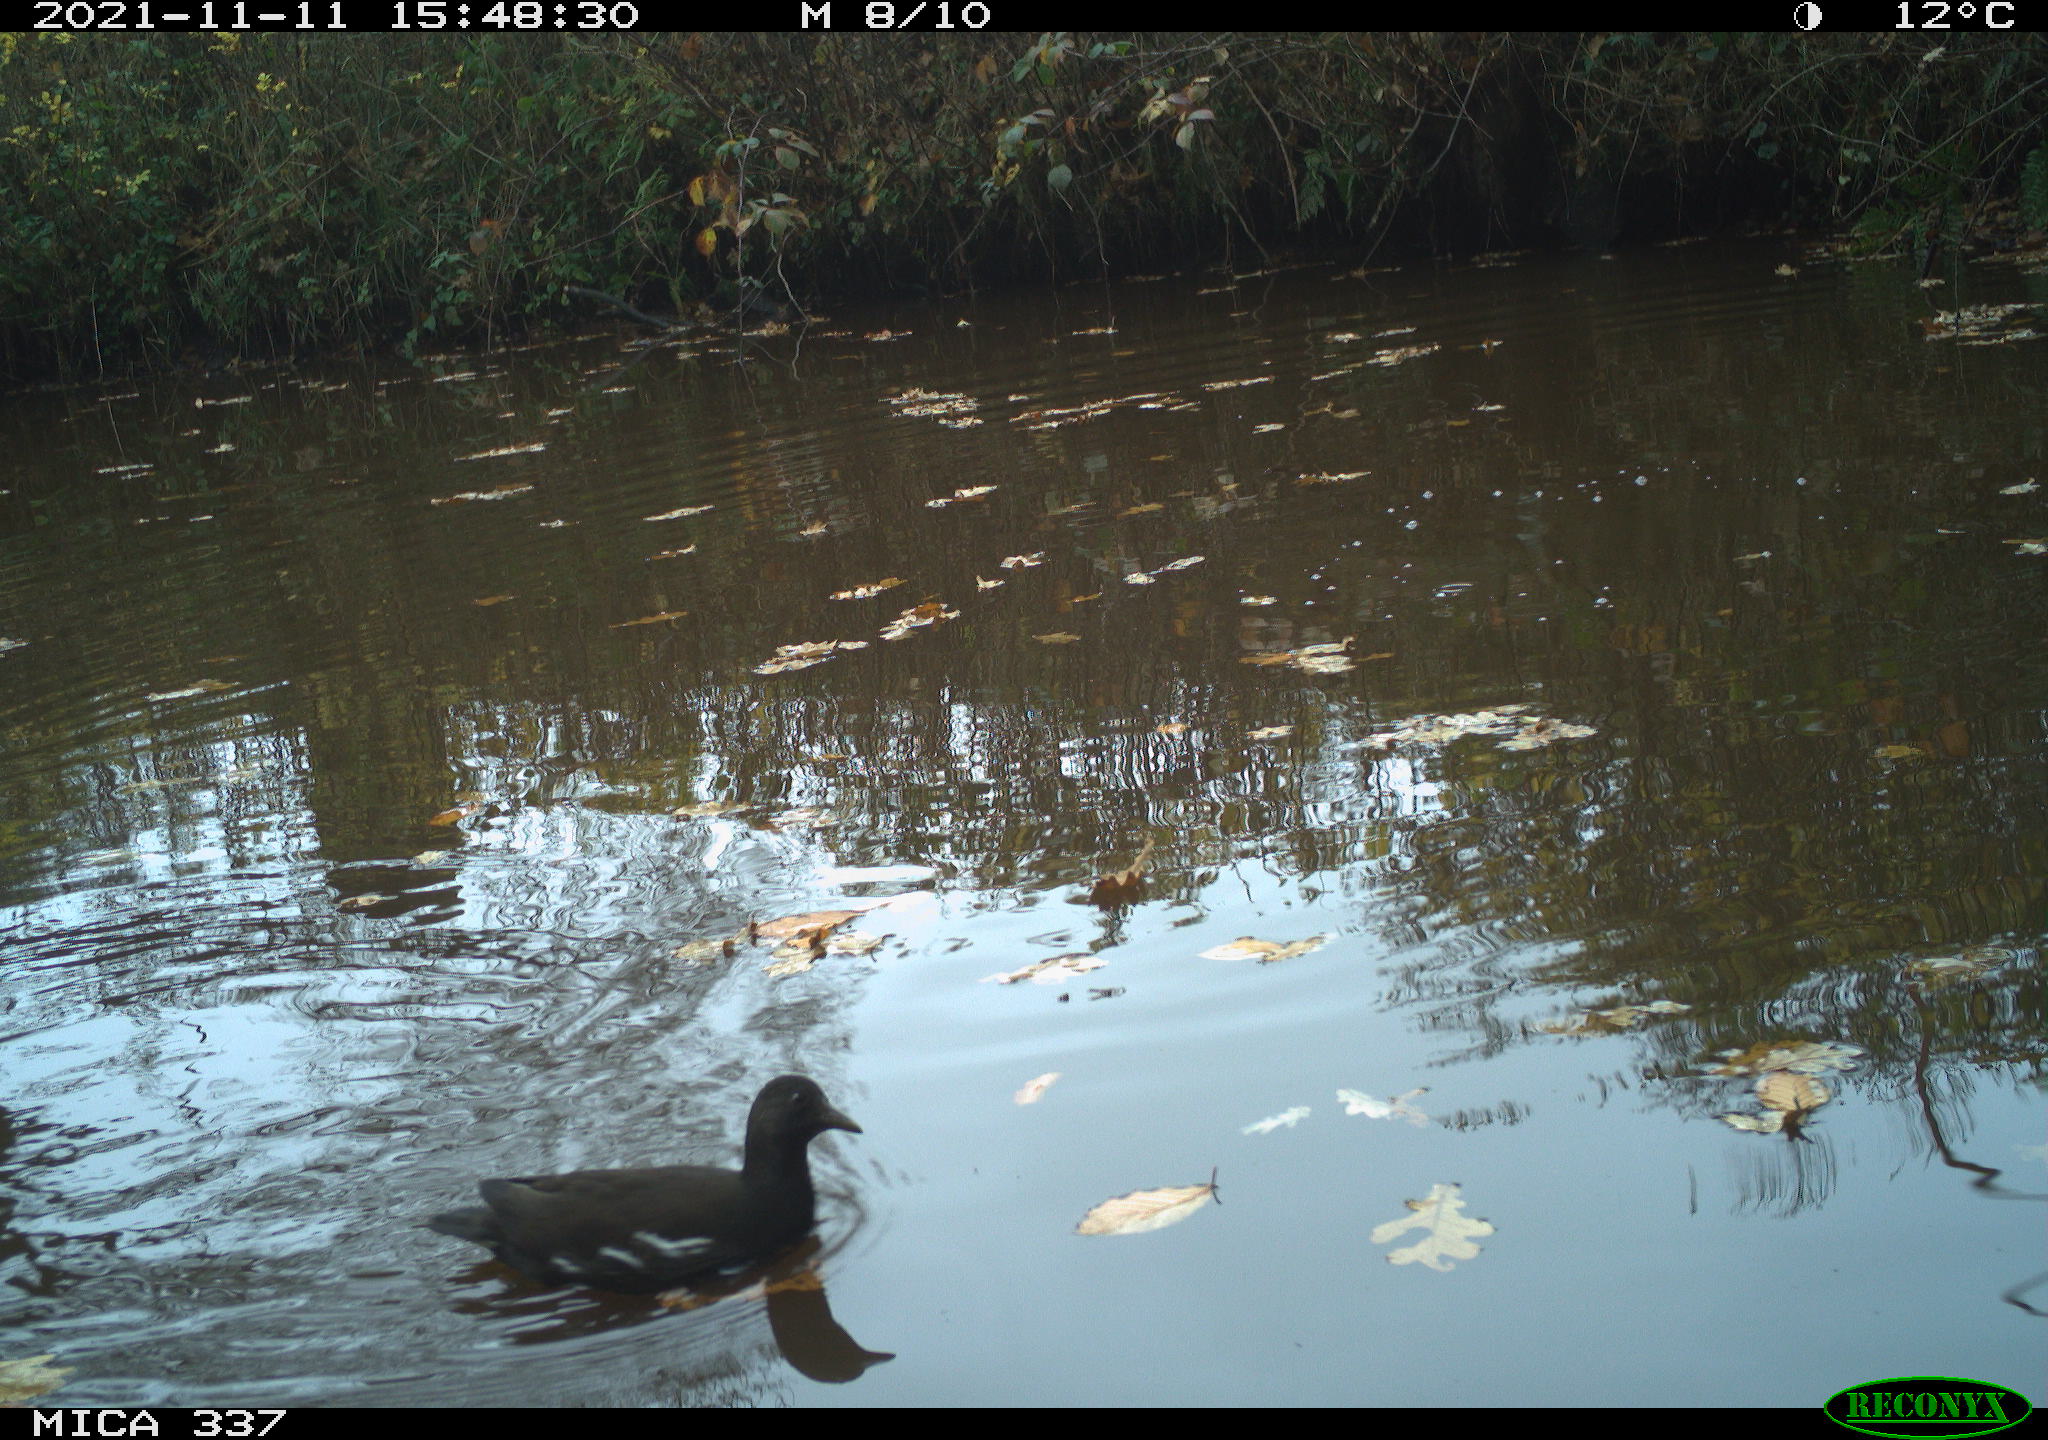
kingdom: Animalia
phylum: Chordata
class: Aves
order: Gruiformes
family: Rallidae
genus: Gallinula
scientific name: Gallinula chloropus
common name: Common moorhen
